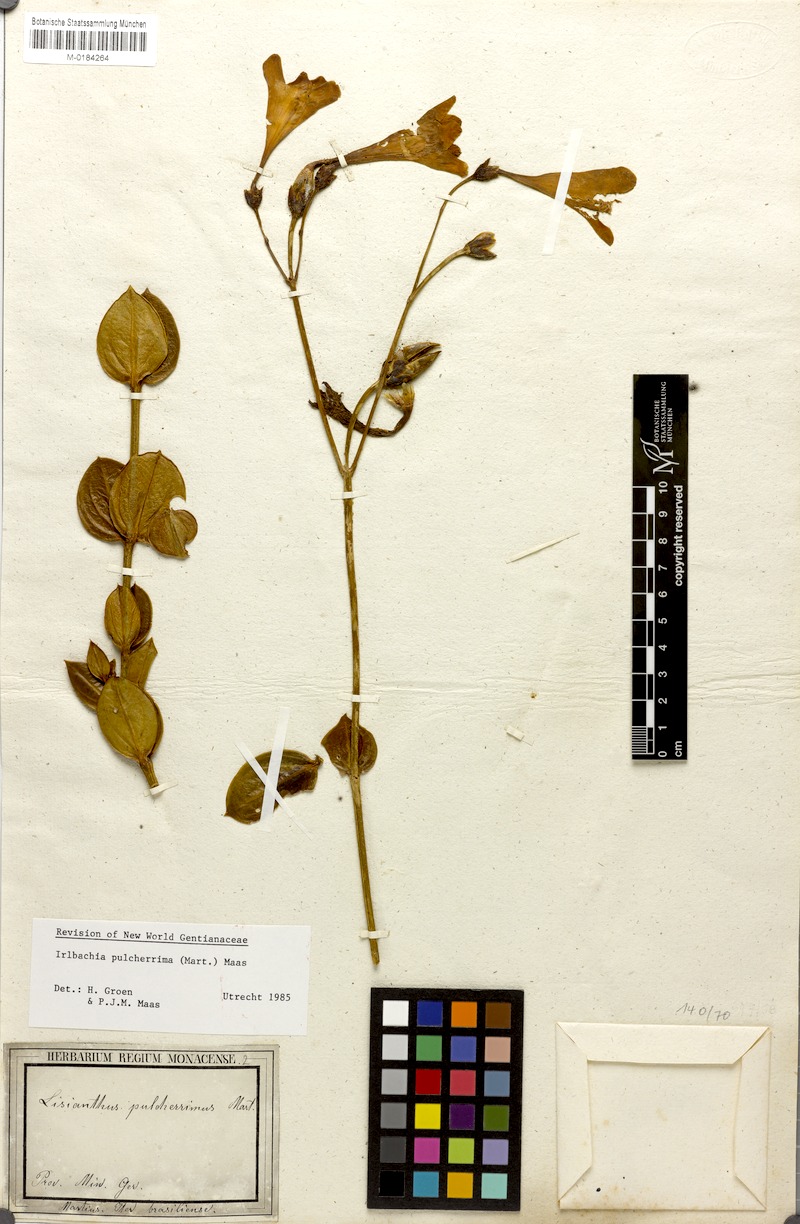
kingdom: Plantae
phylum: Tracheophyta
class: Magnoliopsida
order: Gentianales
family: Gentianaceae
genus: Calolisianthus
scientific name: Calolisianthus pulcherrimus
